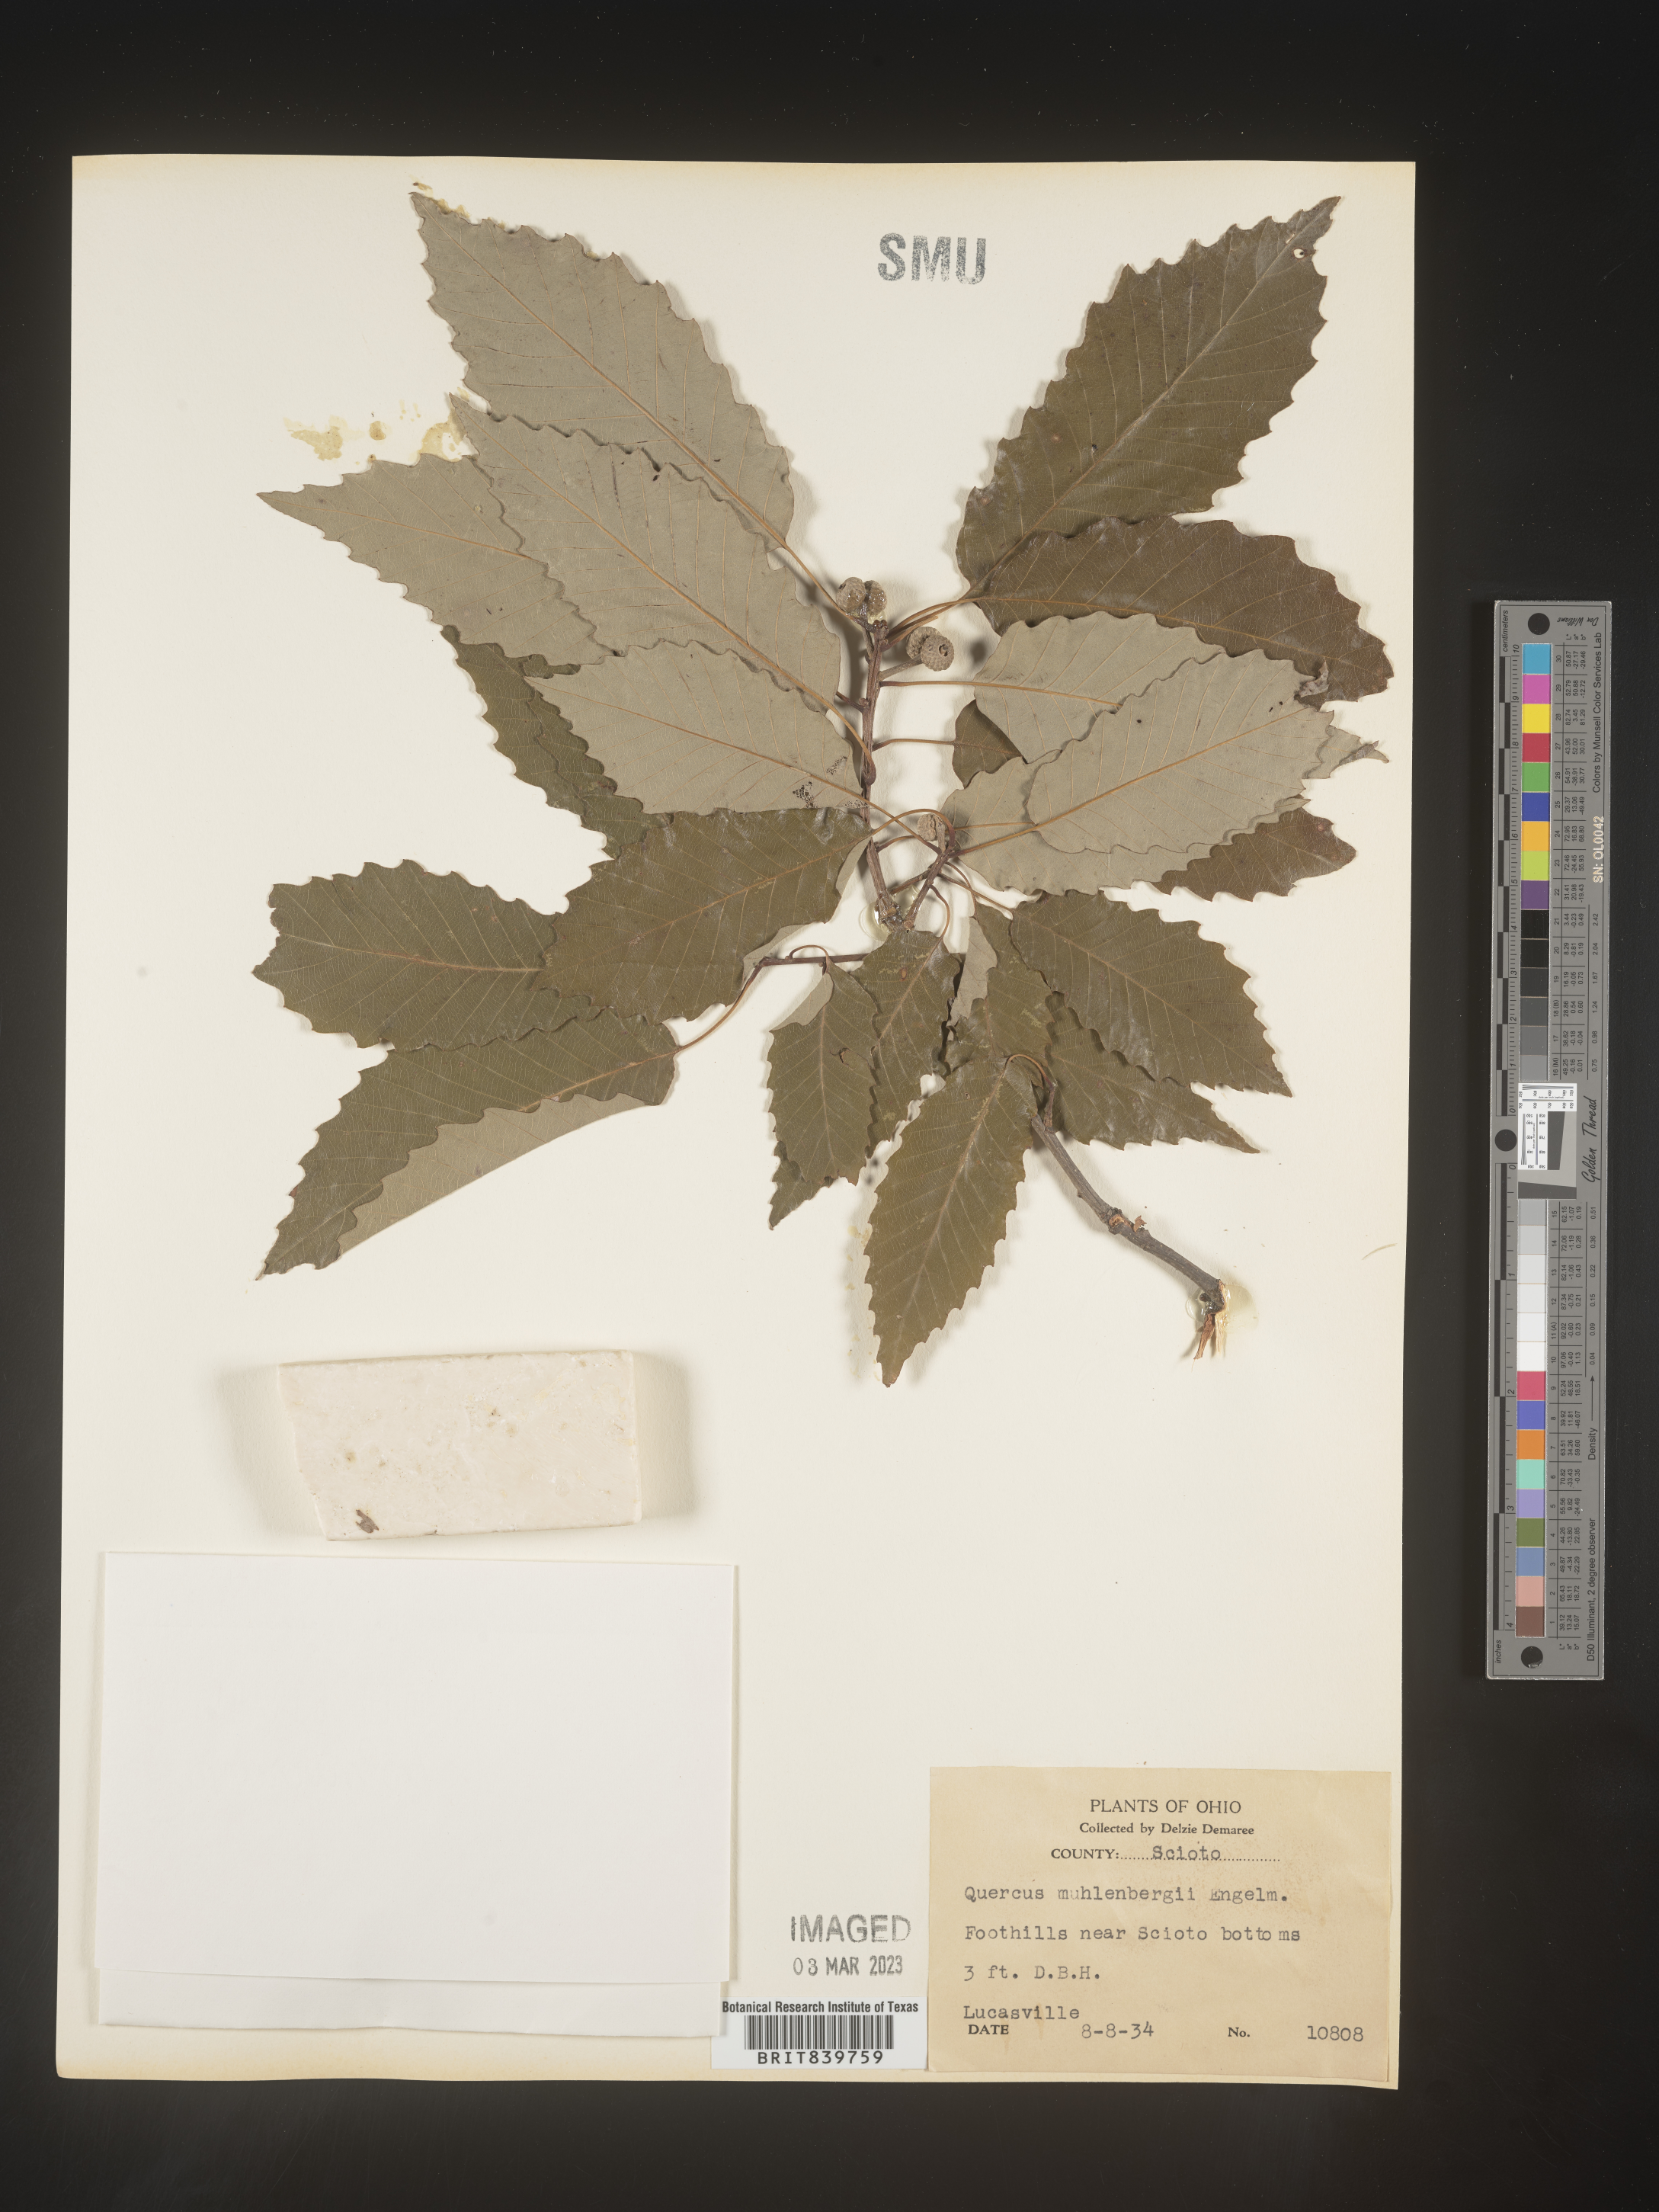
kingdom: Plantae
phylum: Tracheophyta
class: Magnoliopsida
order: Fagales
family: Fagaceae
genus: Quercus
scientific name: Quercus muehlenbergii
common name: Chinkapin oak
